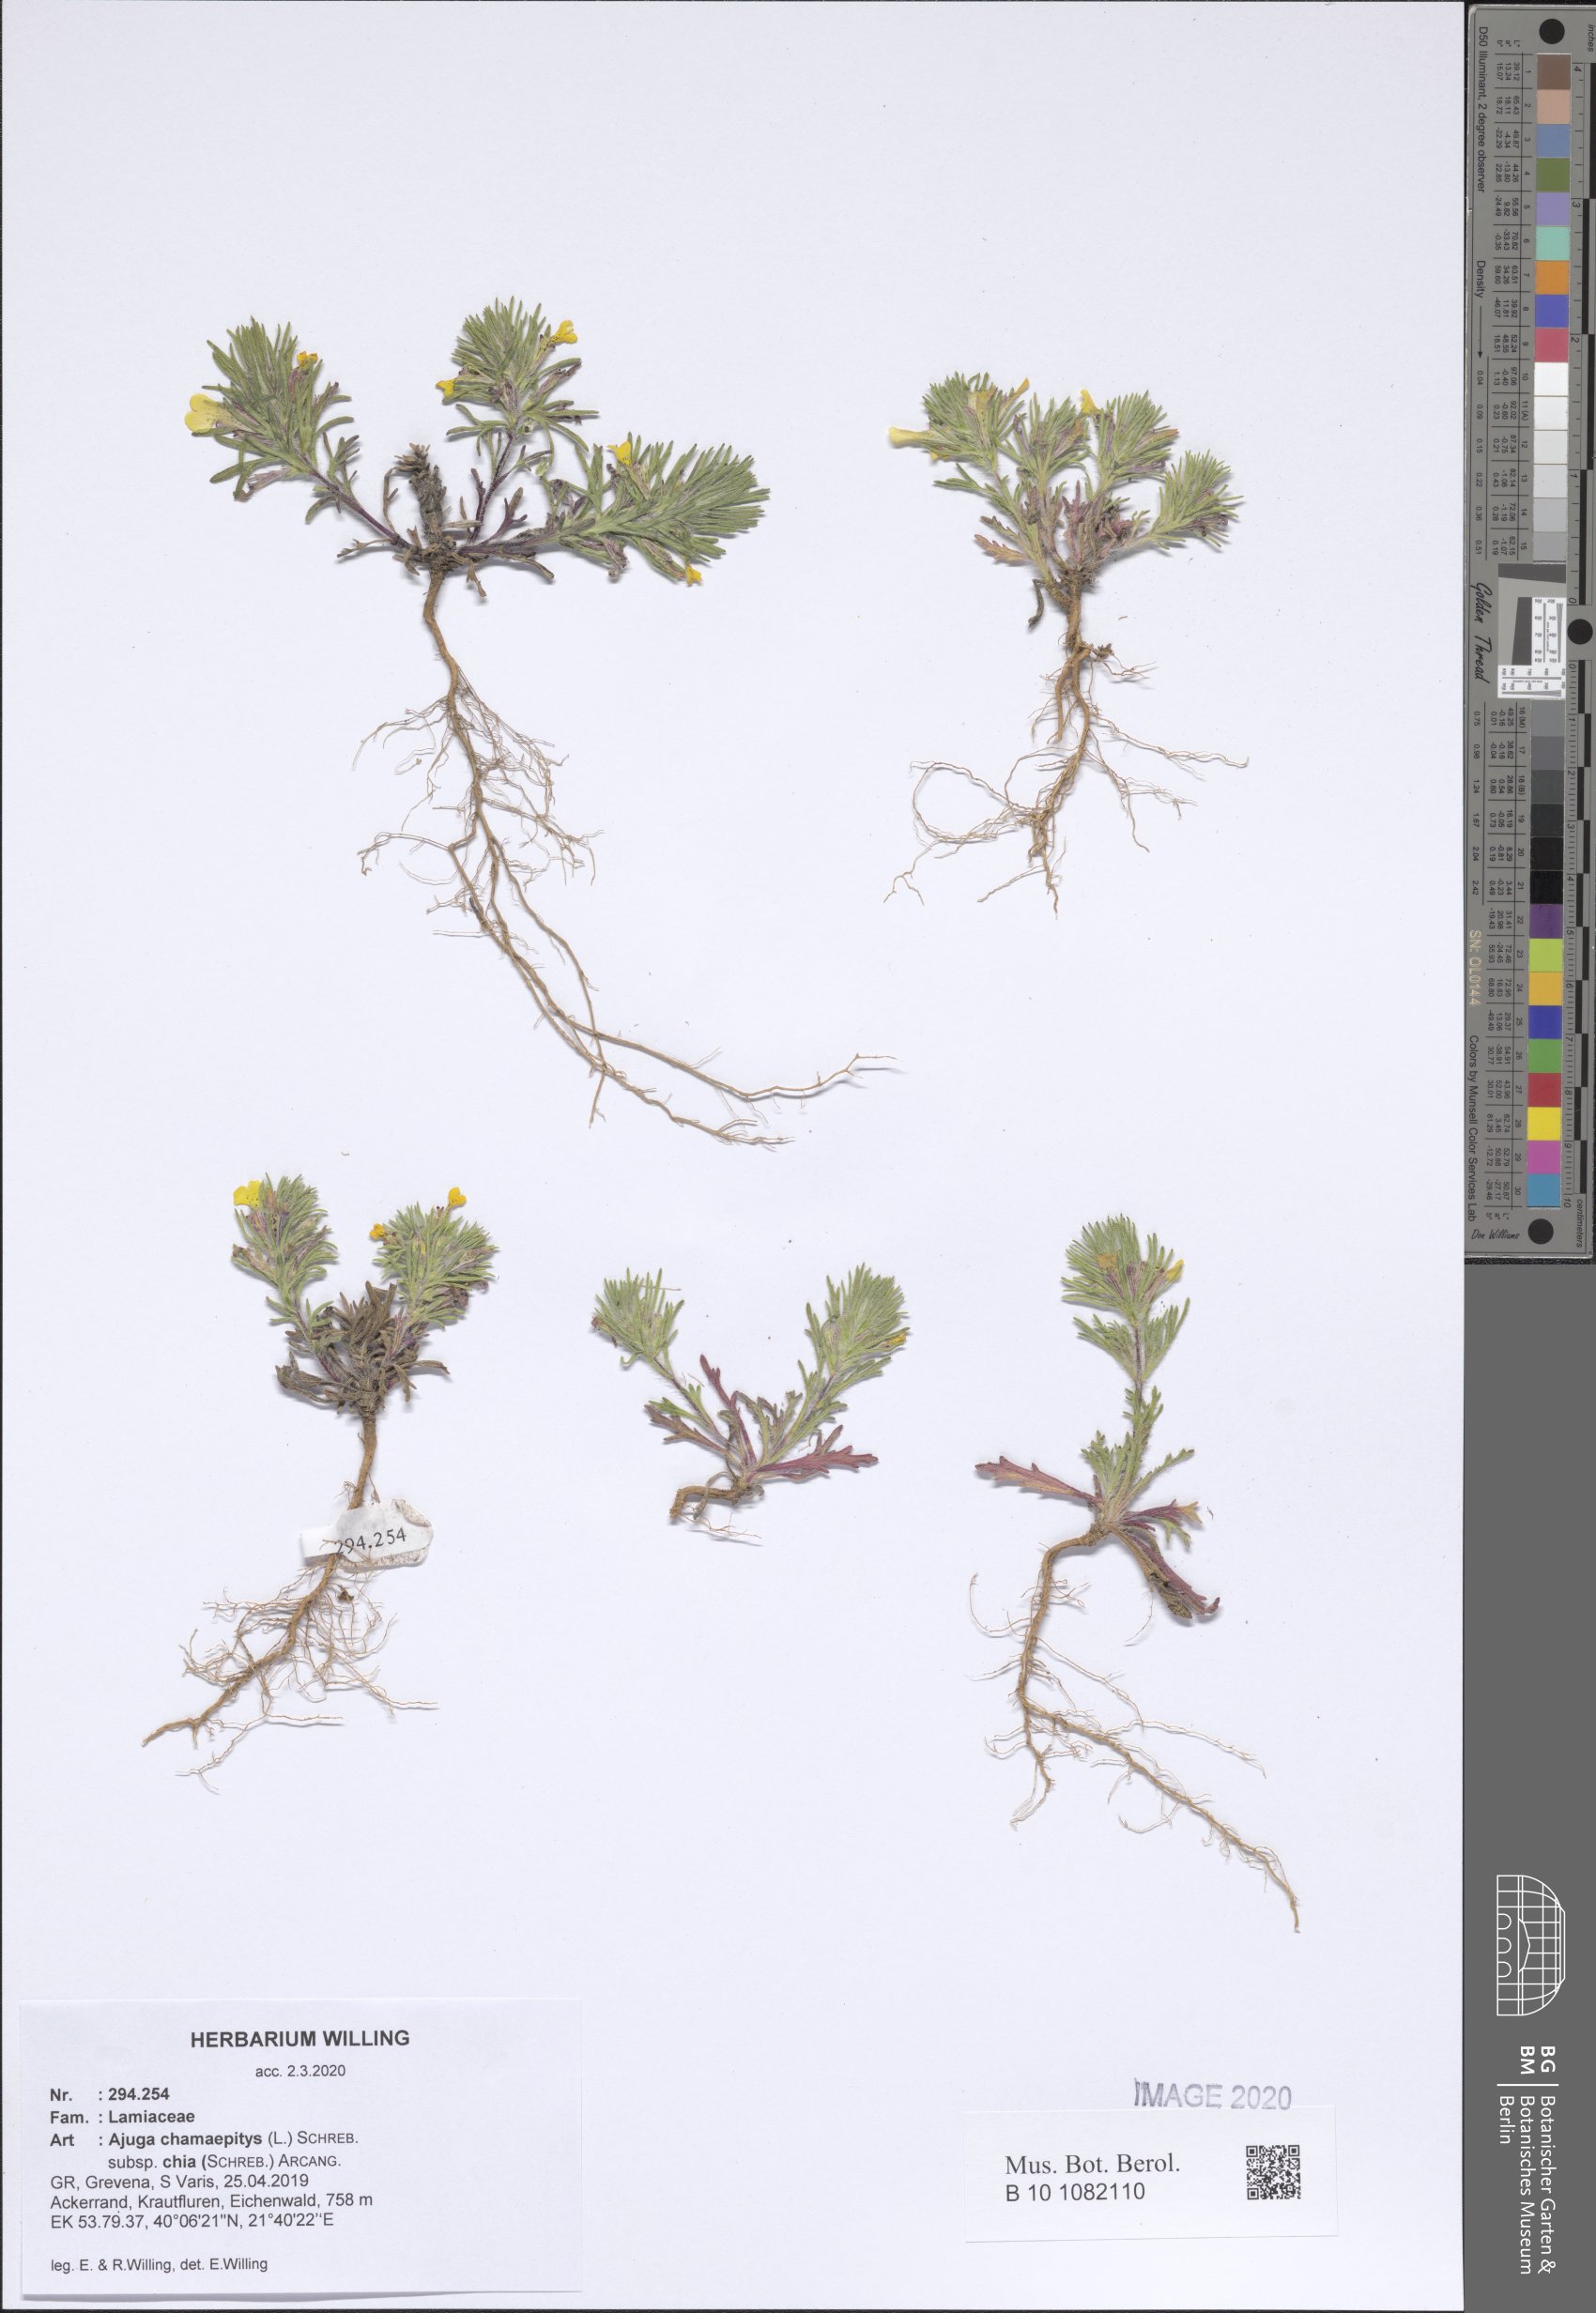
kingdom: Plantae
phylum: Tracheophyta
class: Magnoliopsida
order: Lamiales
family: Lamiaceae
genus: Ajuga
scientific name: Ajuga chamaepitys
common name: Ground-pine
